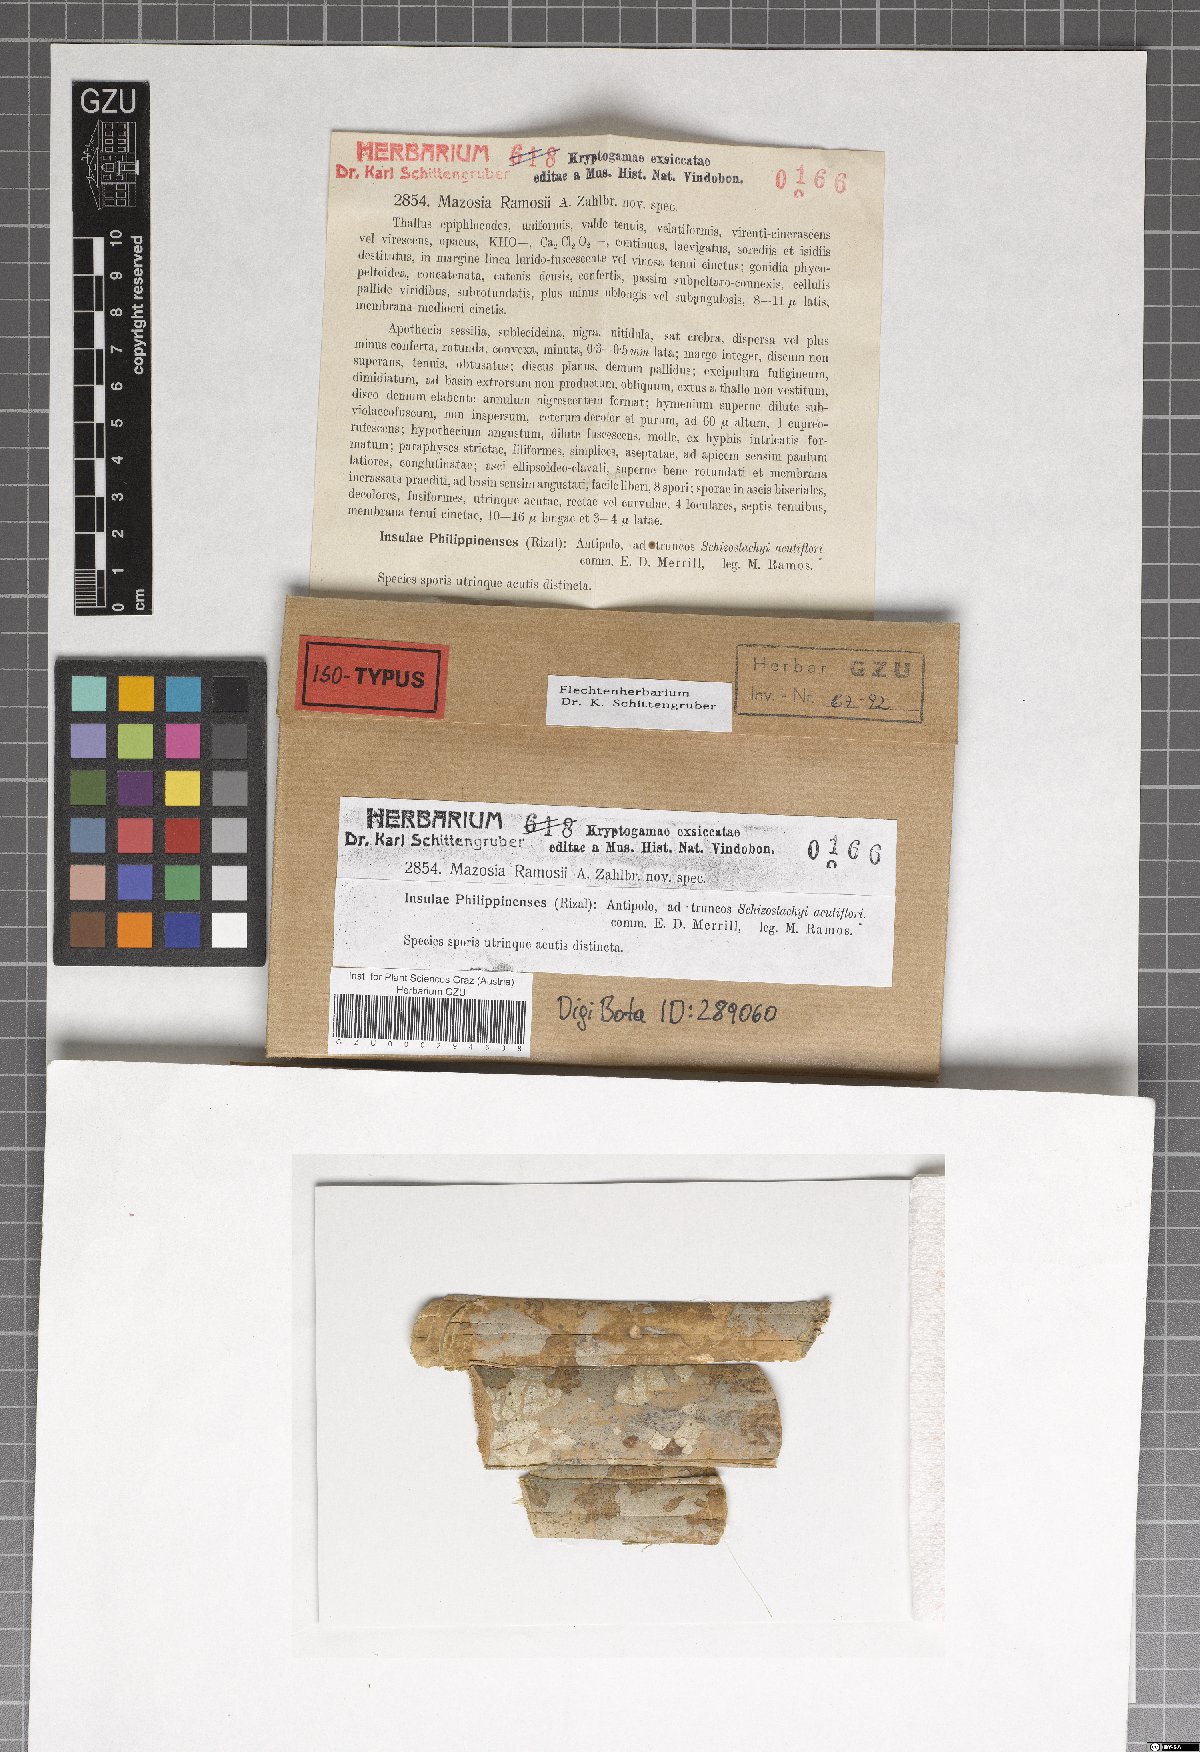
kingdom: Fungi
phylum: Ascomycota
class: Arthoniomycetes
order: Arthoniales
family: Roccellaceae
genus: Mazosia
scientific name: Mazosia ramosii
